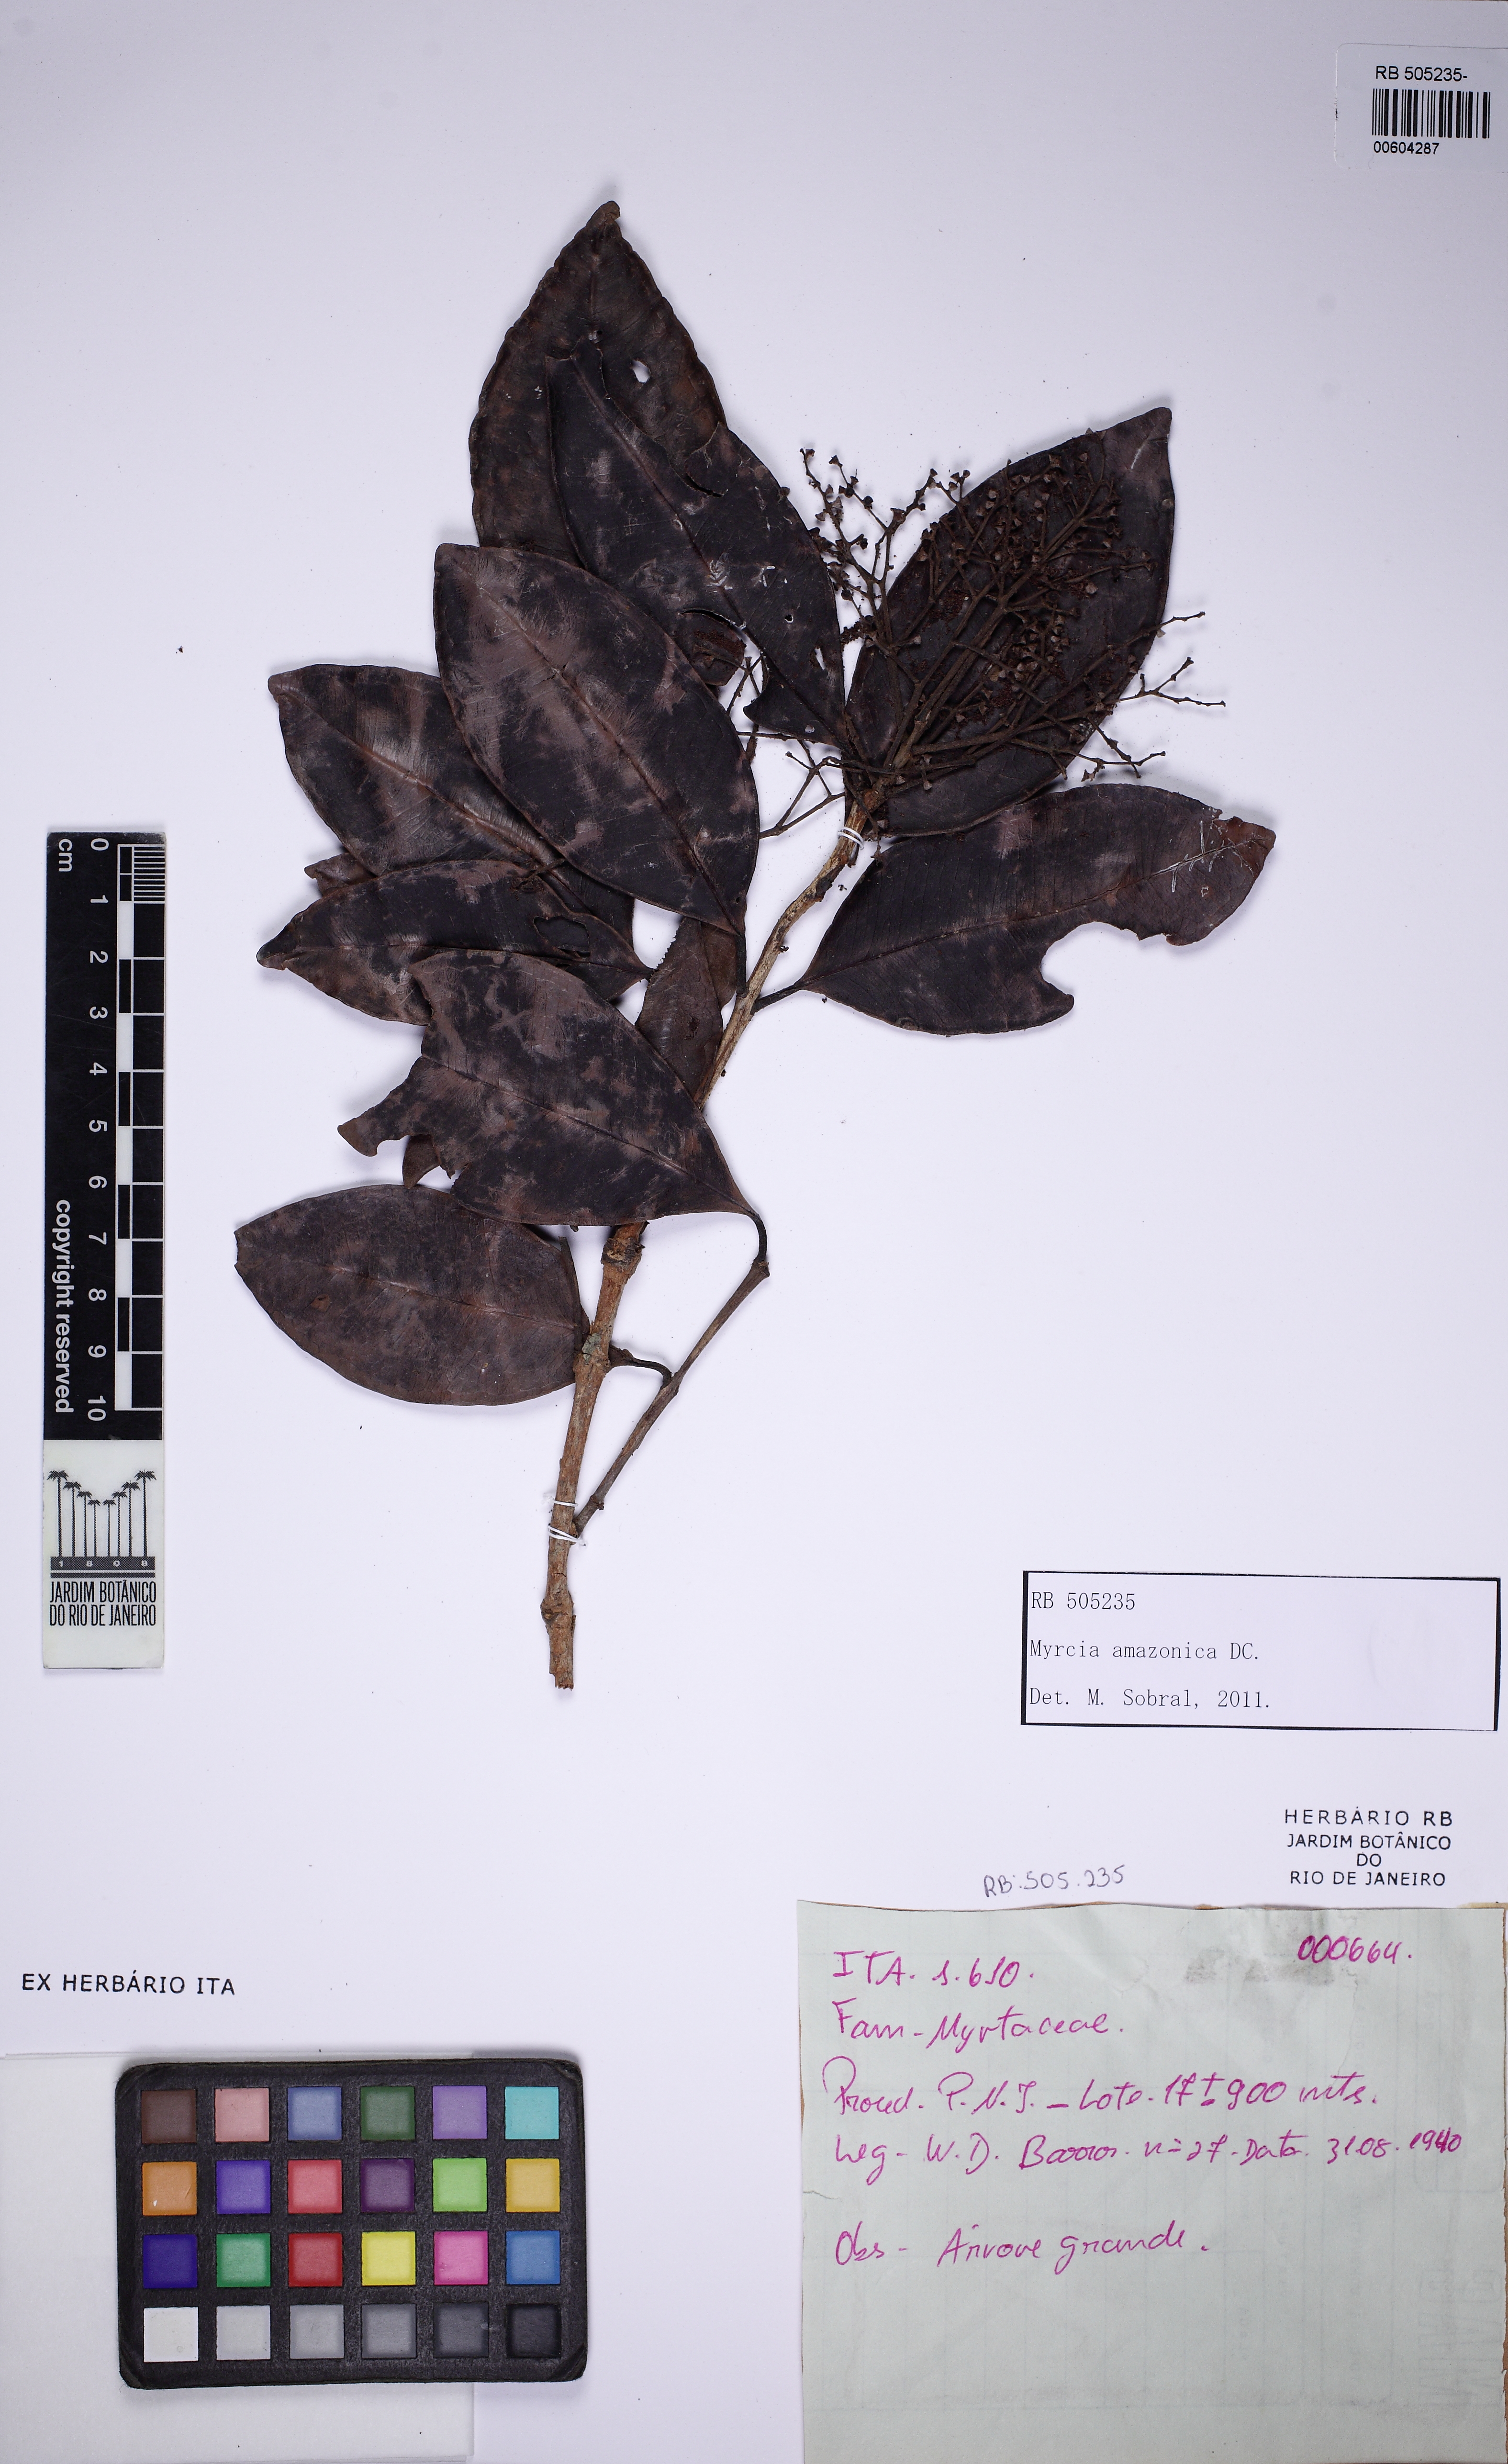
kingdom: Plantae
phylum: Tracheophyta
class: Magnoliopsida
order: Myrtales
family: Myrtaceae
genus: Myrcia
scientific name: Myrcia pubiflora
